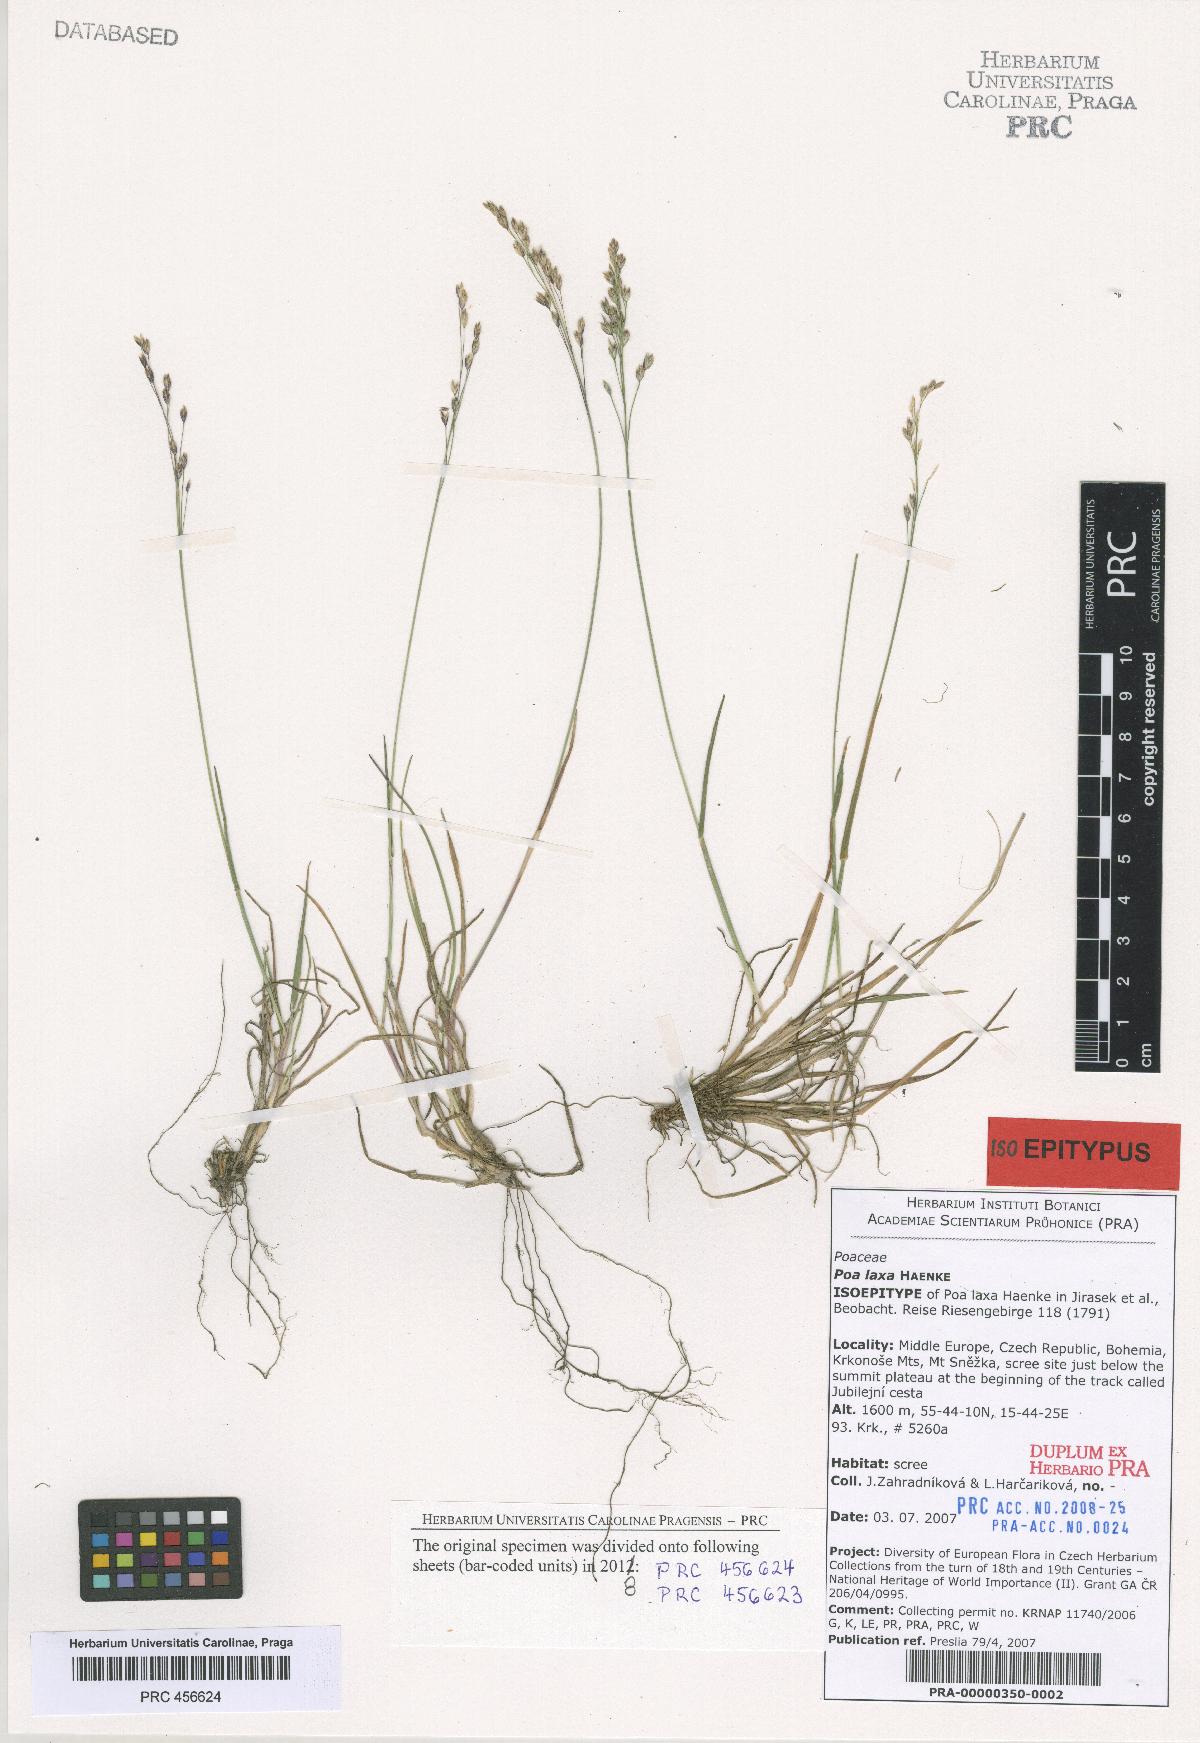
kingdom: Plantae
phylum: Tracheophyta
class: Liliopsida
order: Poales
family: Poaceae
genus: Poa
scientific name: Poa laxa
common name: Lax bluegrass
